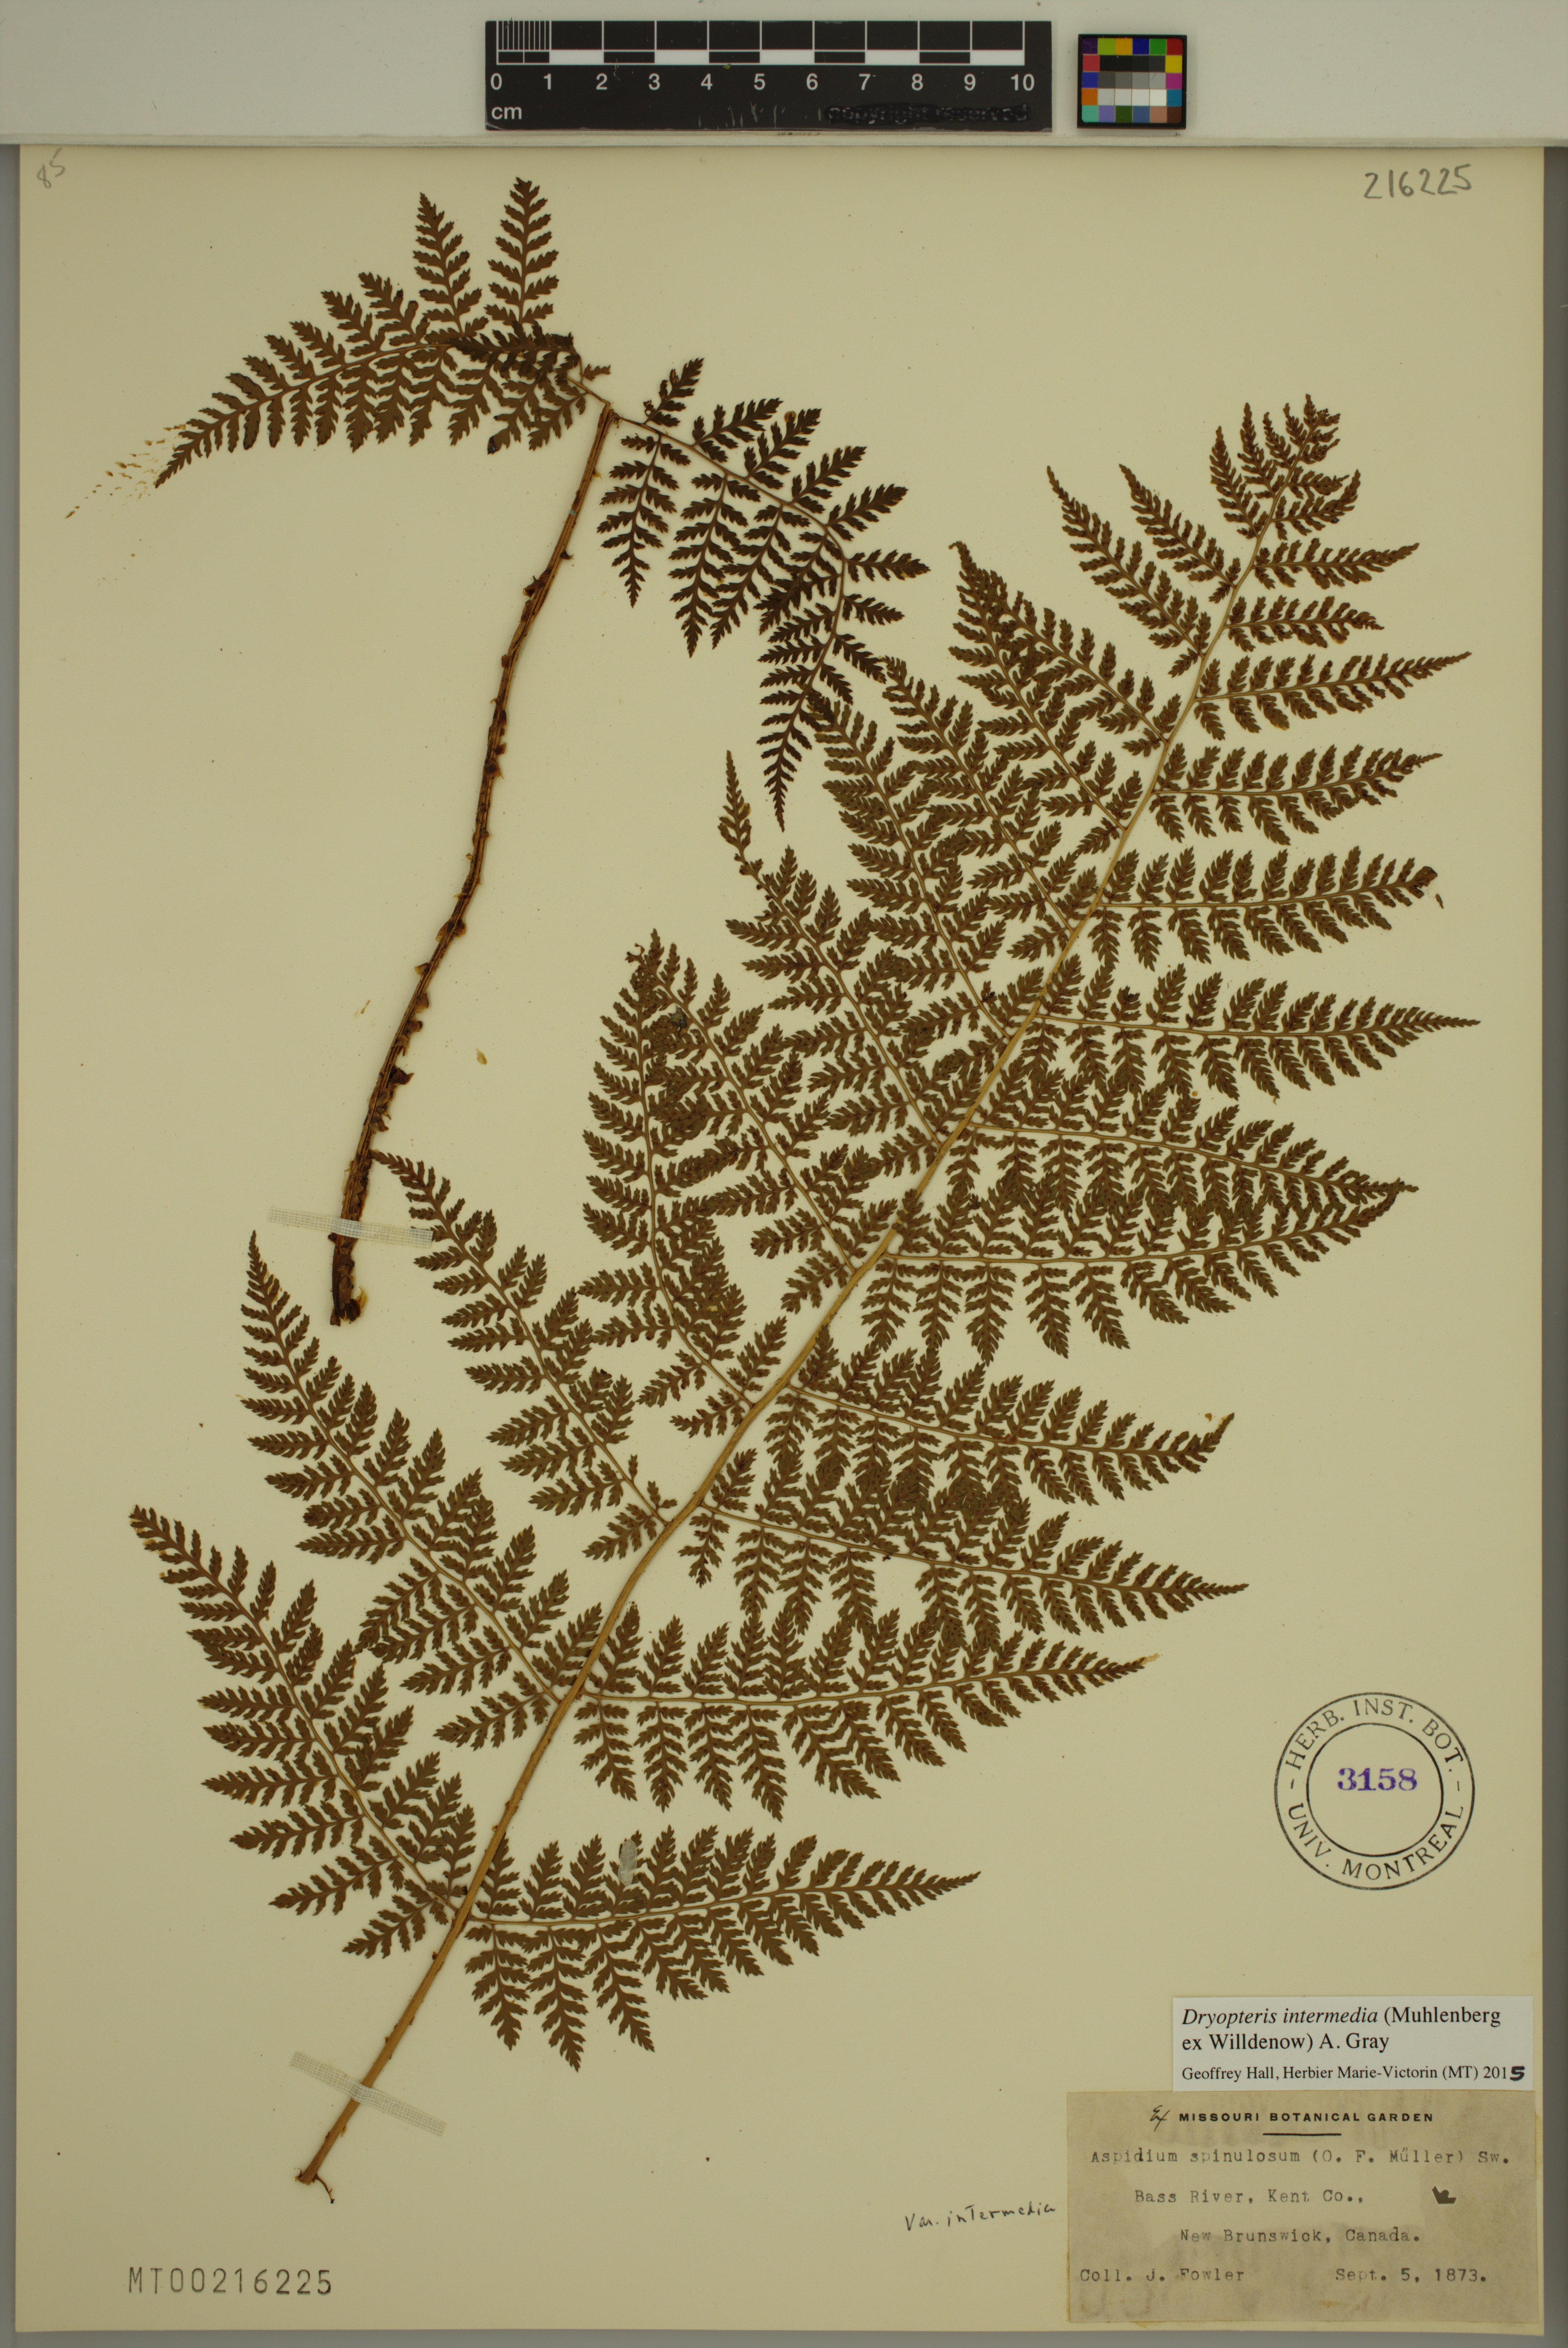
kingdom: Plantae
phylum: Tracheophyta
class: Polypodiopsida
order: Polypodiales
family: Dryopteridaceae
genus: Dryopteris
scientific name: Dryopteris intermedia
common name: Evergreen wood fern
